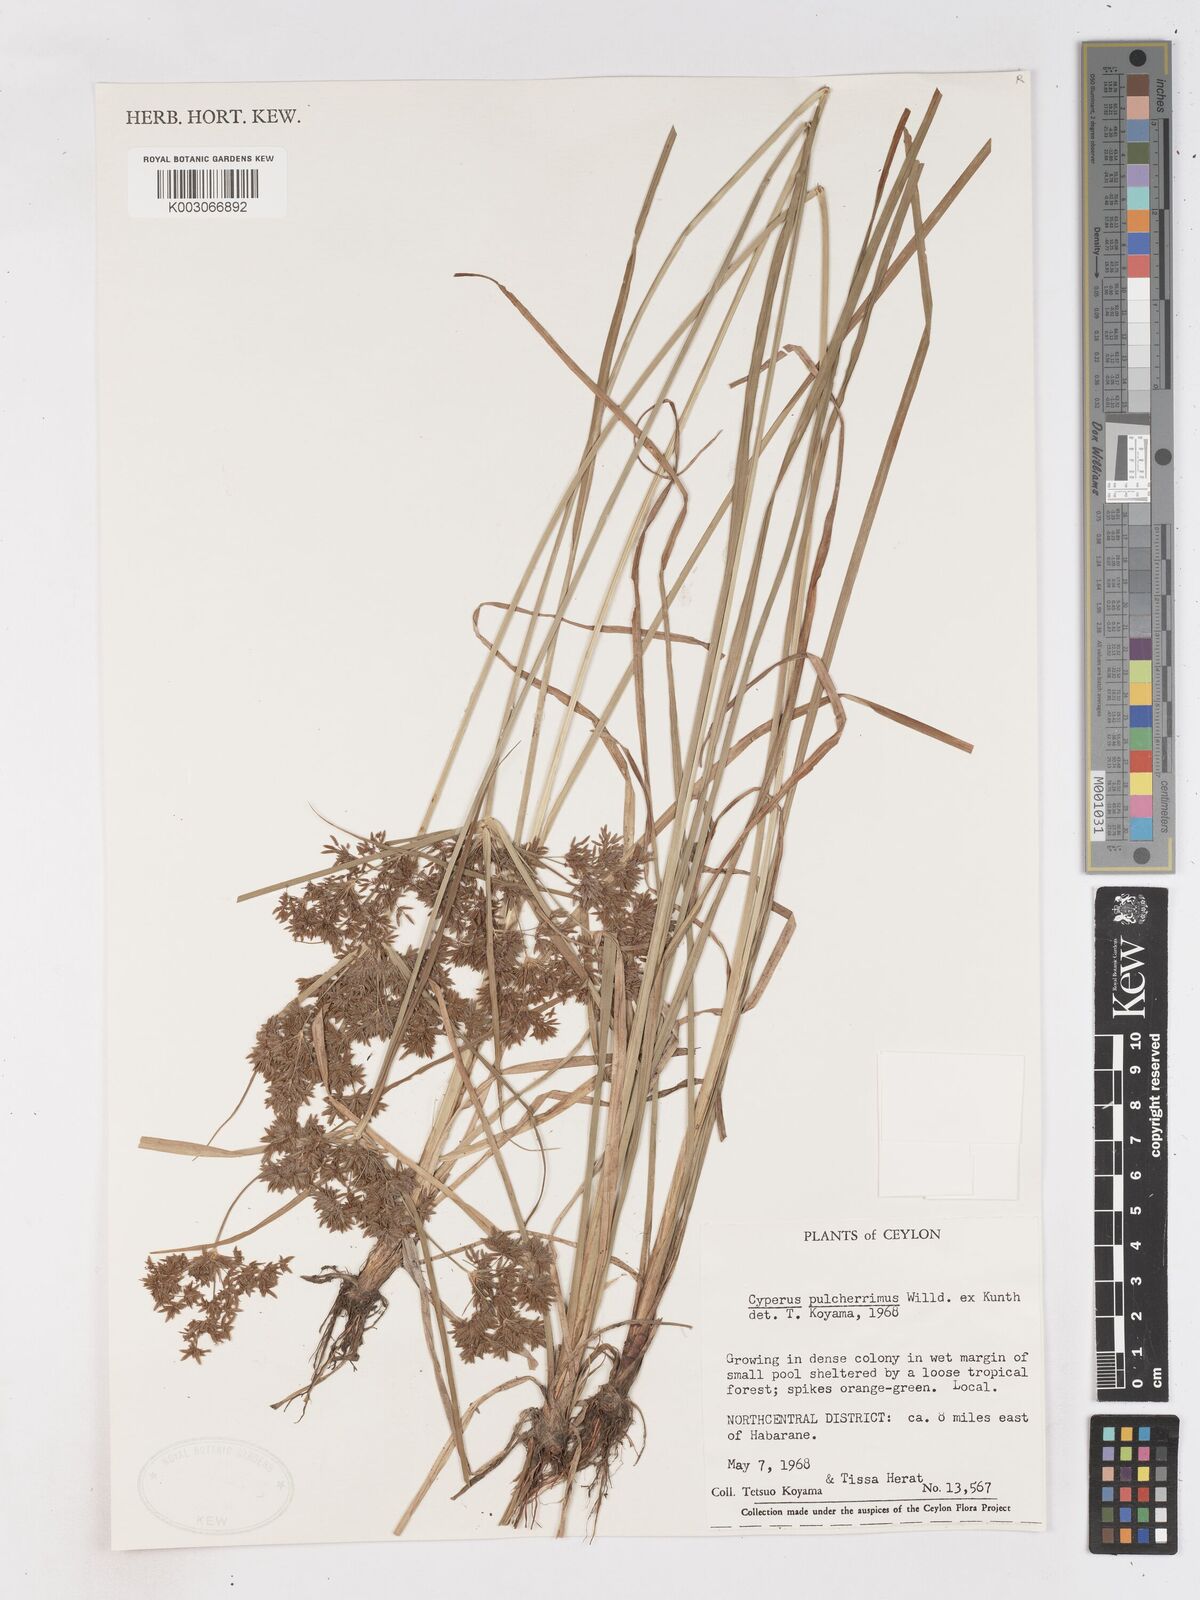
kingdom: Plantae
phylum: Tracheophyta
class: Liliopsida
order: Poales
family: Cyperaceae
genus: Cyperus
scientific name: Cyperus pulcherrimus
